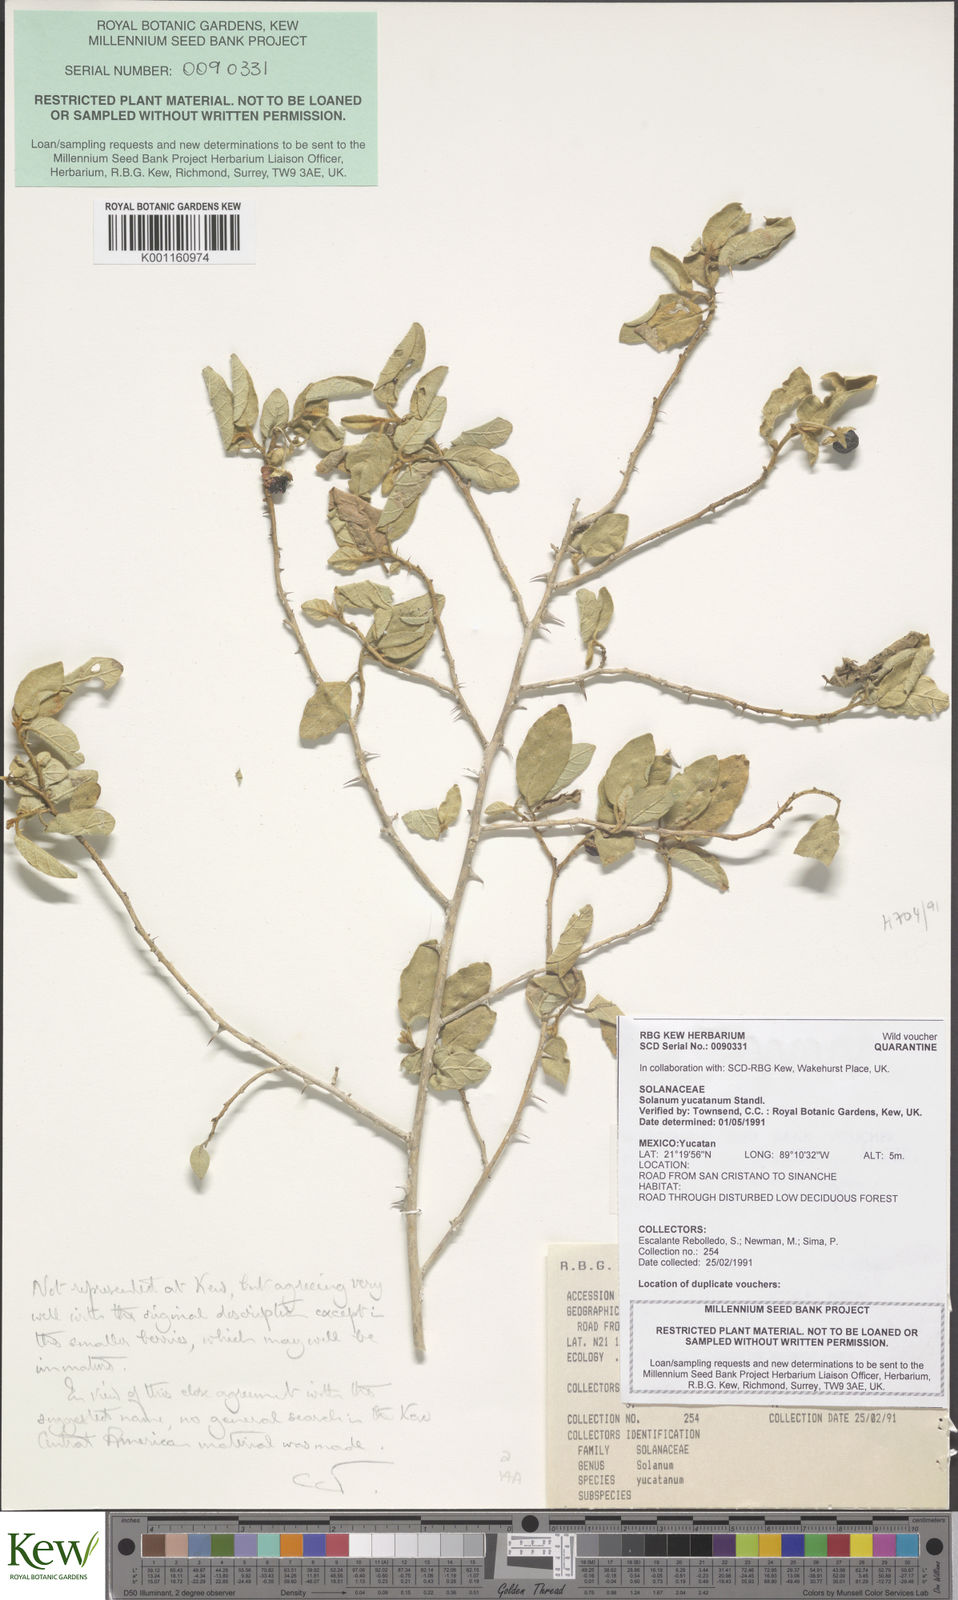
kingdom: Plantae
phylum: Tracheophyta
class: Magnoliopsida
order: Solanales
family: Solanaceae
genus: Solanum
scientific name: Solanum dasyanthum
